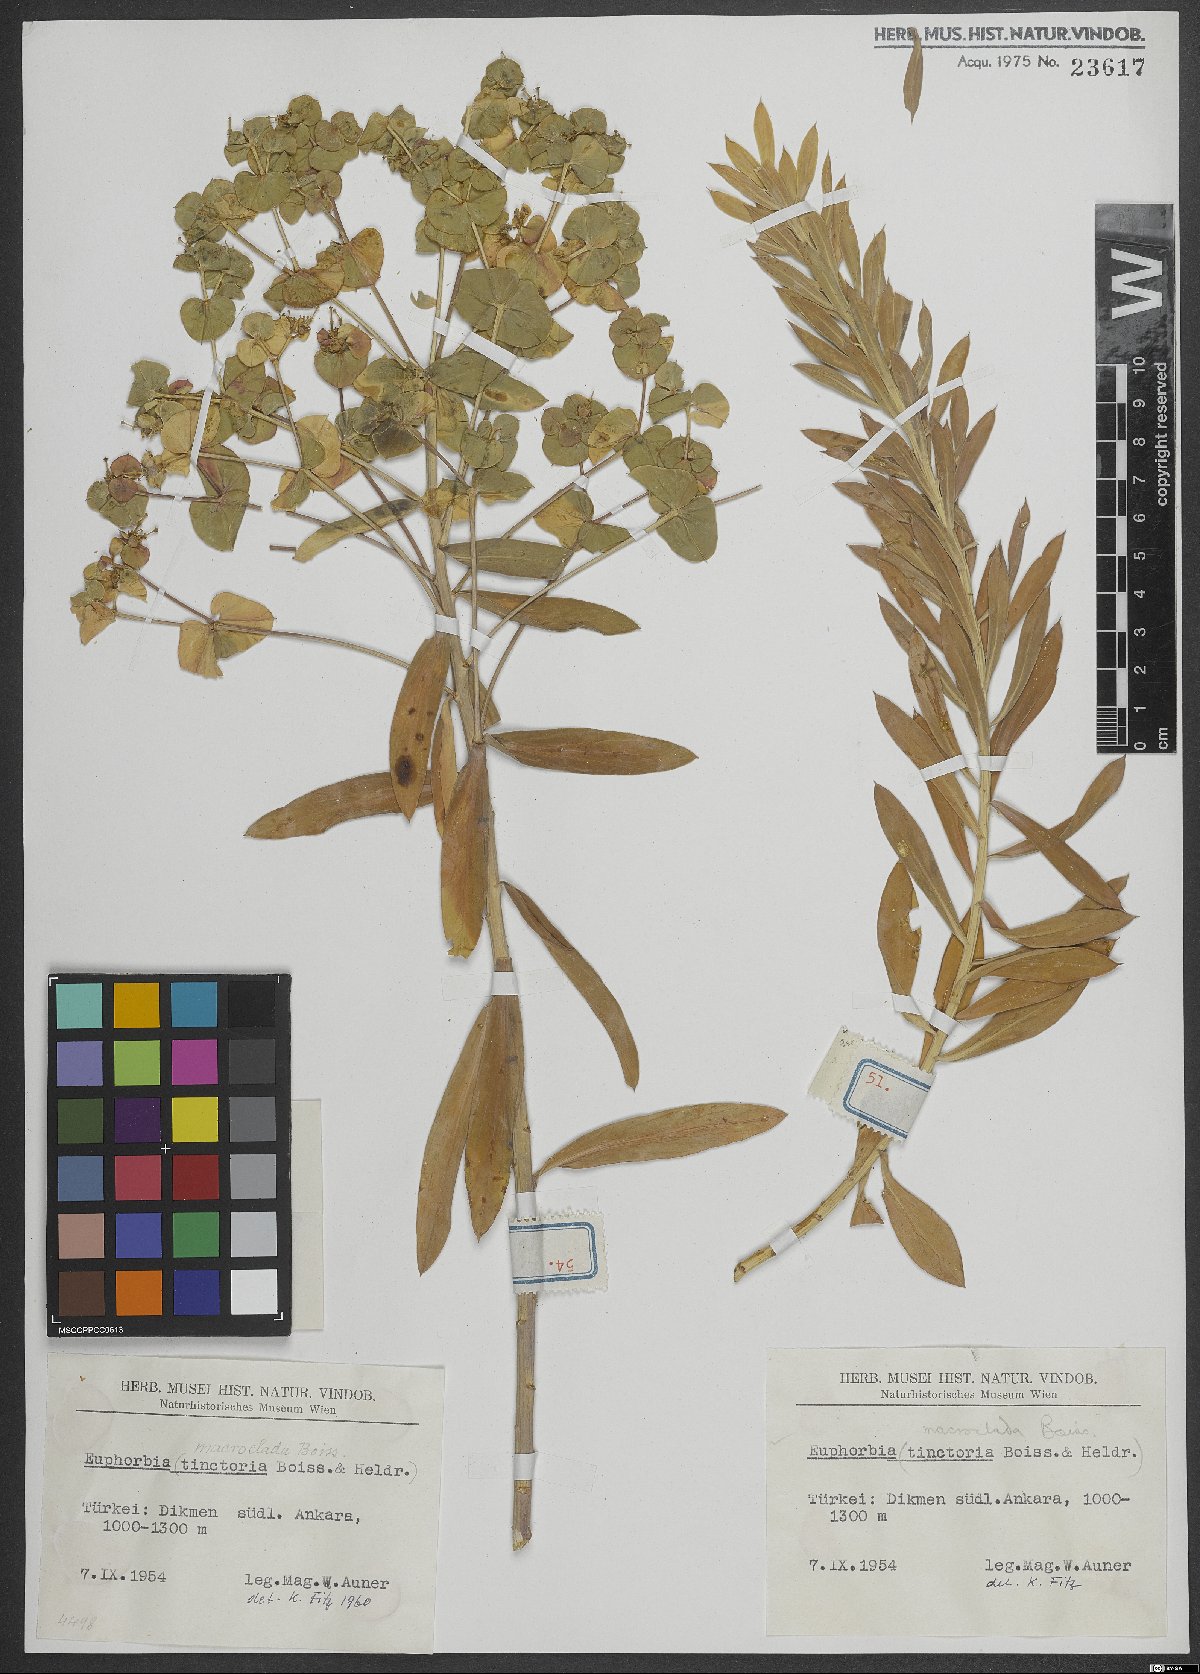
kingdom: Plantae
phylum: Tracheophyta
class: Magnoliopsida
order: Malpighiales
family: Euphorbiaceae
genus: Euphorbia
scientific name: Euphorbia macroclada
